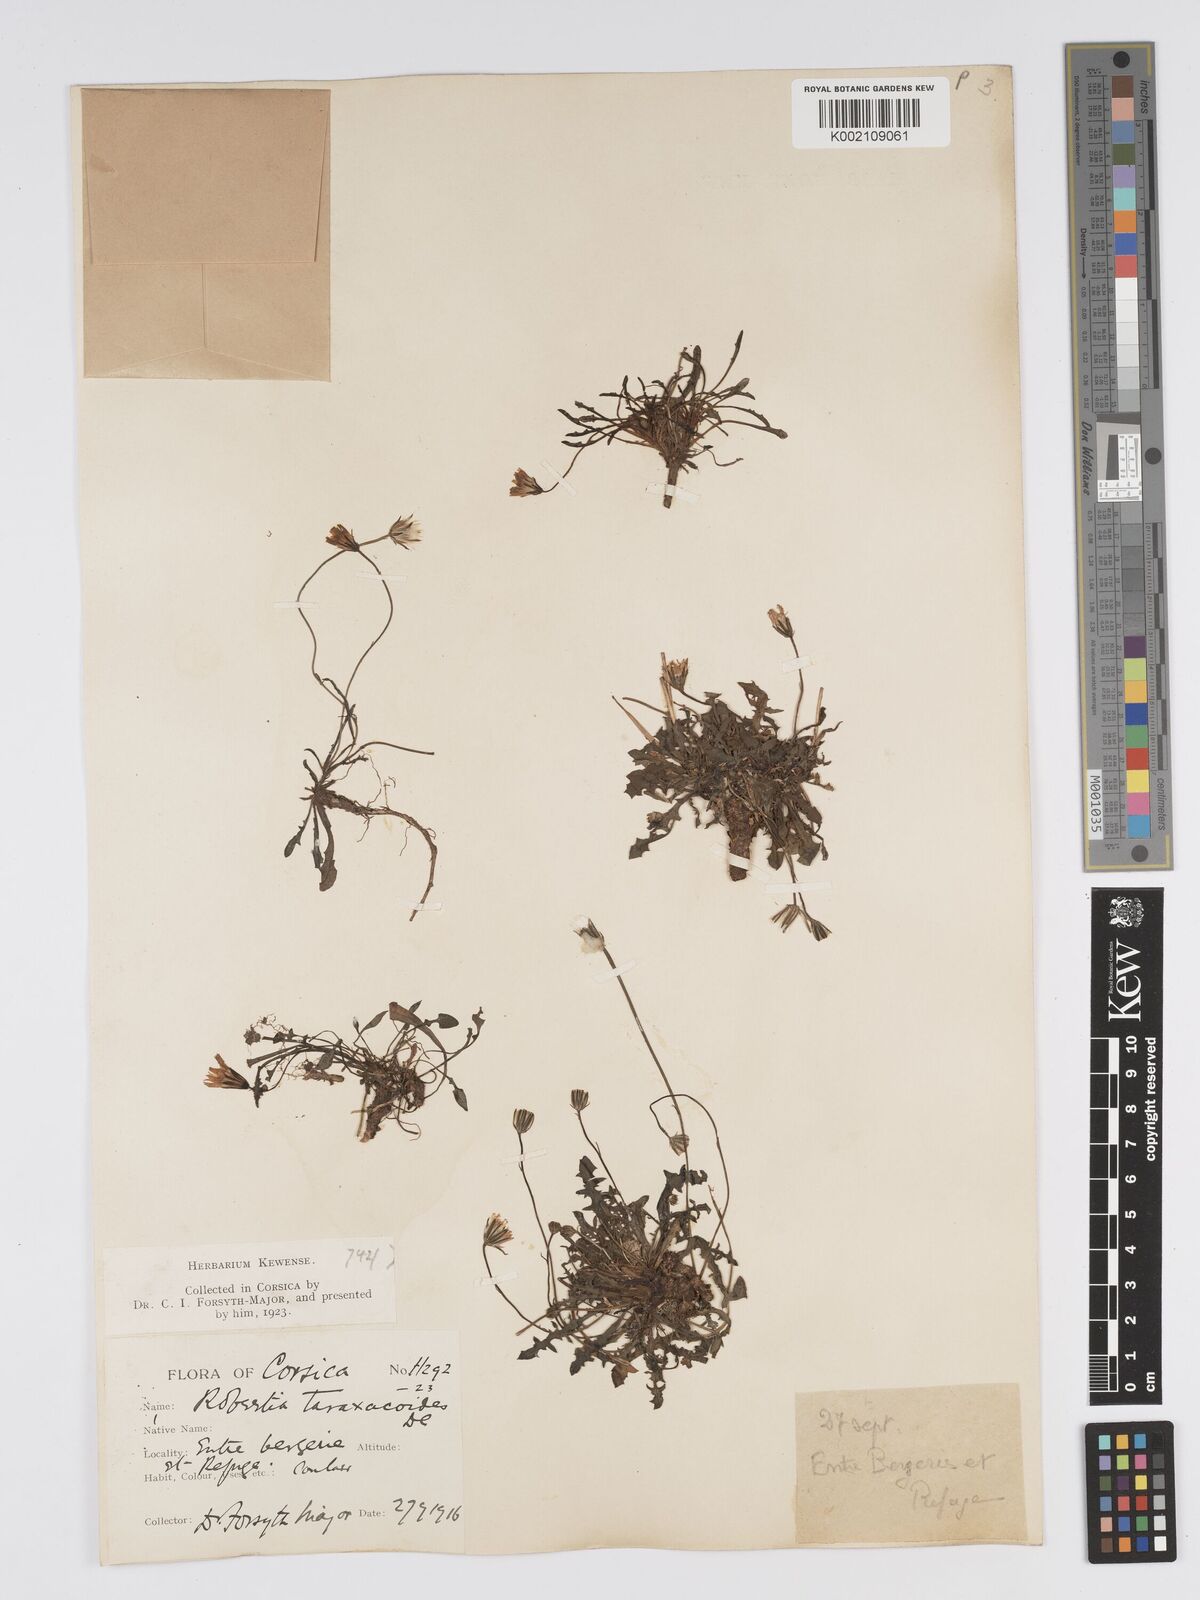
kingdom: Plantae
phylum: Tracheophyta
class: Magnoliopsida
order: Asterales
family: Asteraceae
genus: Crepis
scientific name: Crepis
